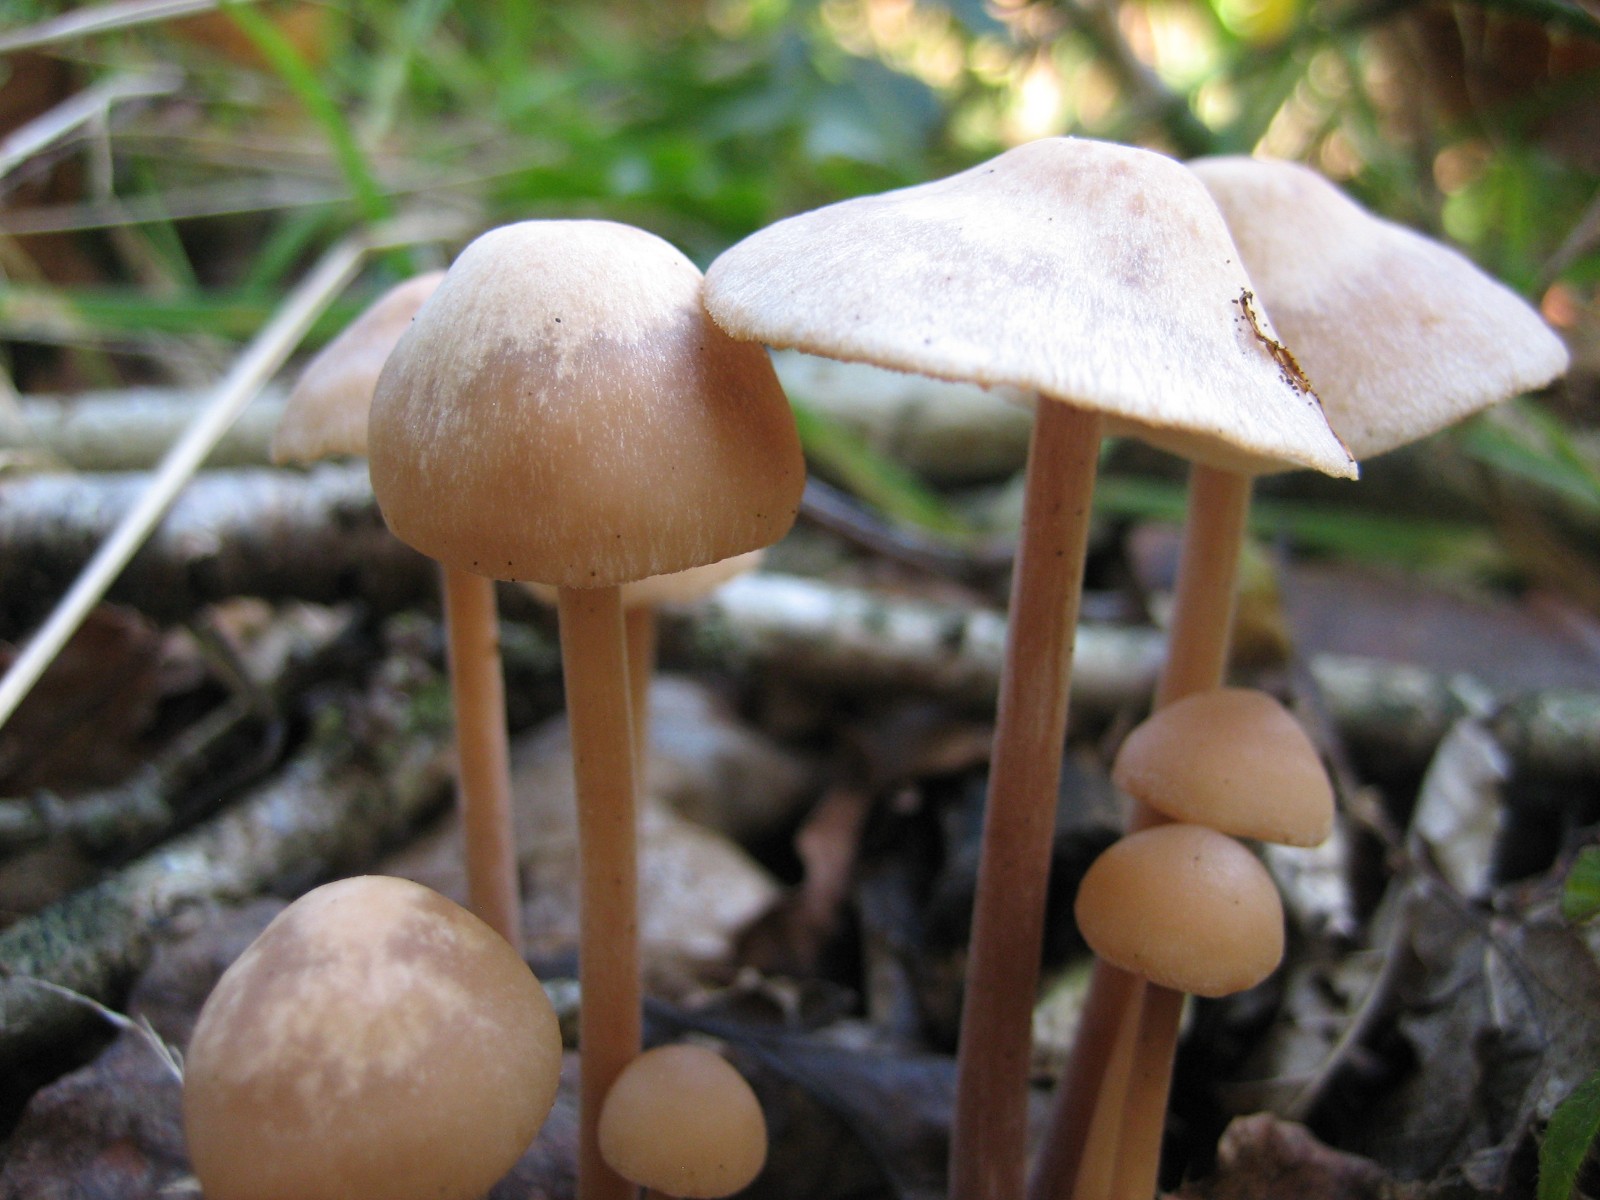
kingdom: Fungi
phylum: Basidiomycota
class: Agaricomycetes
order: Agaricales
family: Omphalotaceae
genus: Collybiopsis
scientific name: Collybiopsis confluens
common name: knippe-fladhat
